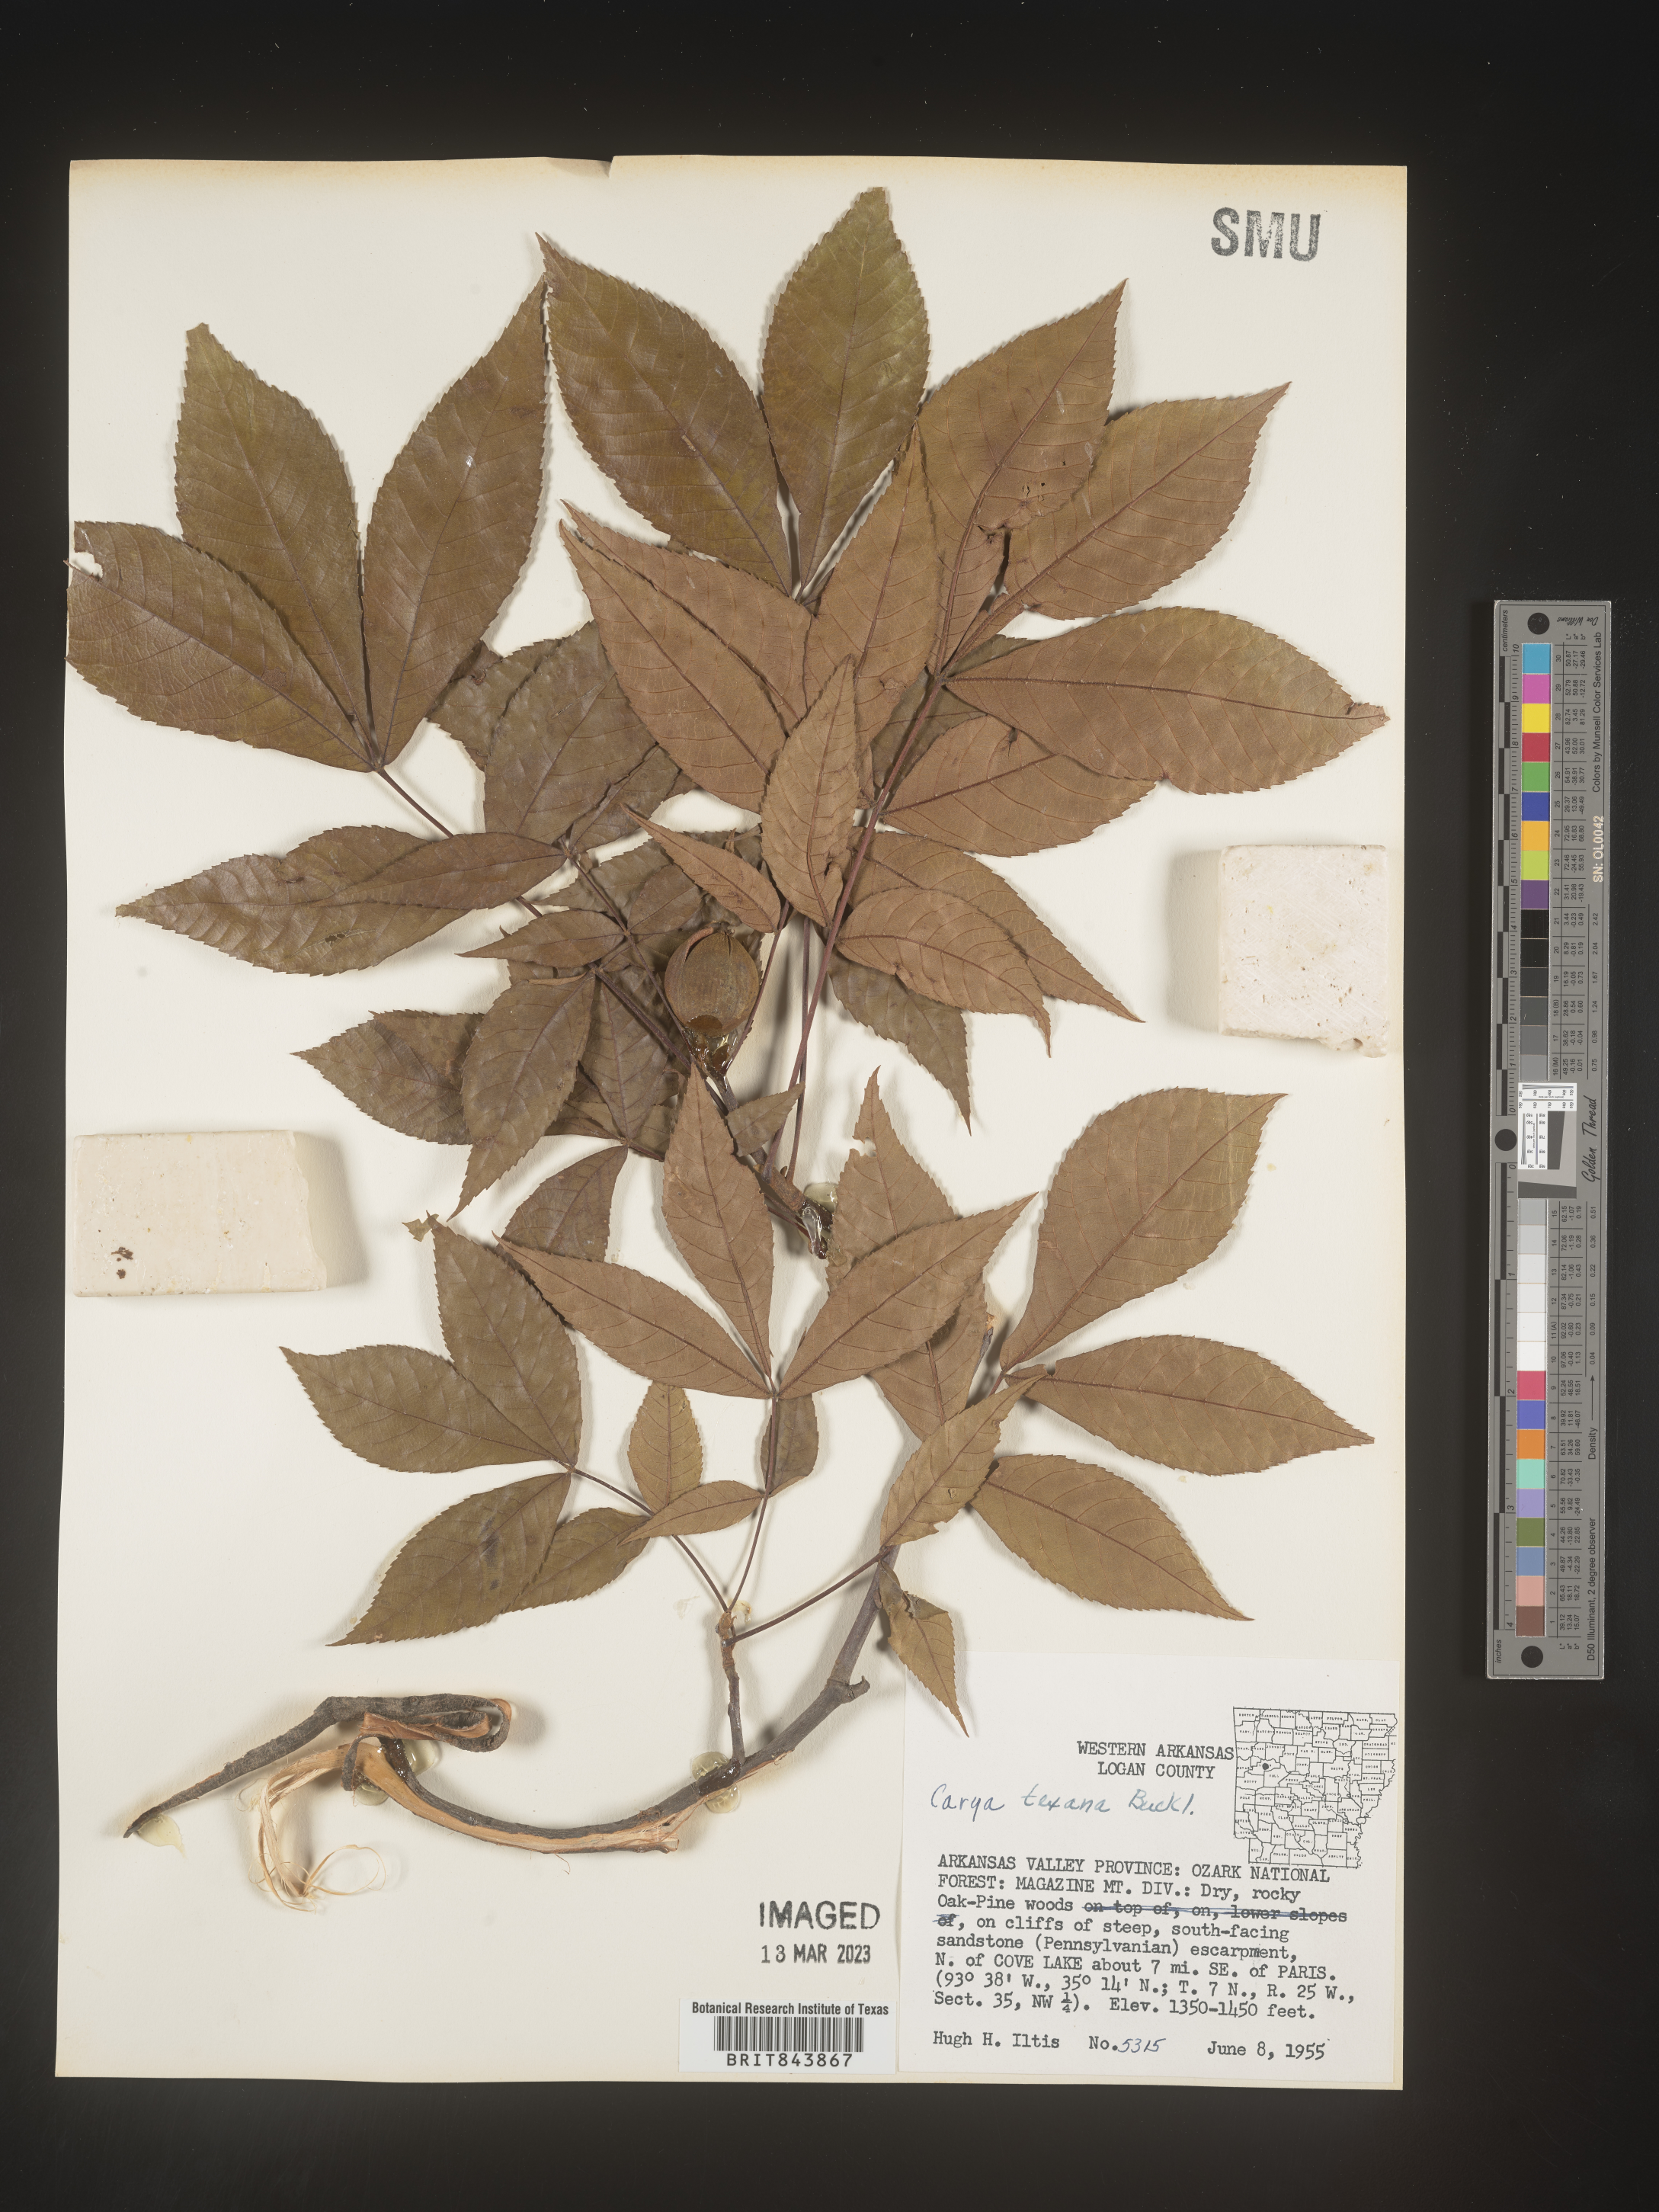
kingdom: Plantae
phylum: Tracheophyta
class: Magnoliopsida
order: Fagales
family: Juglandaceae
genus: Carya
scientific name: Carya texana
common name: Black hickory
